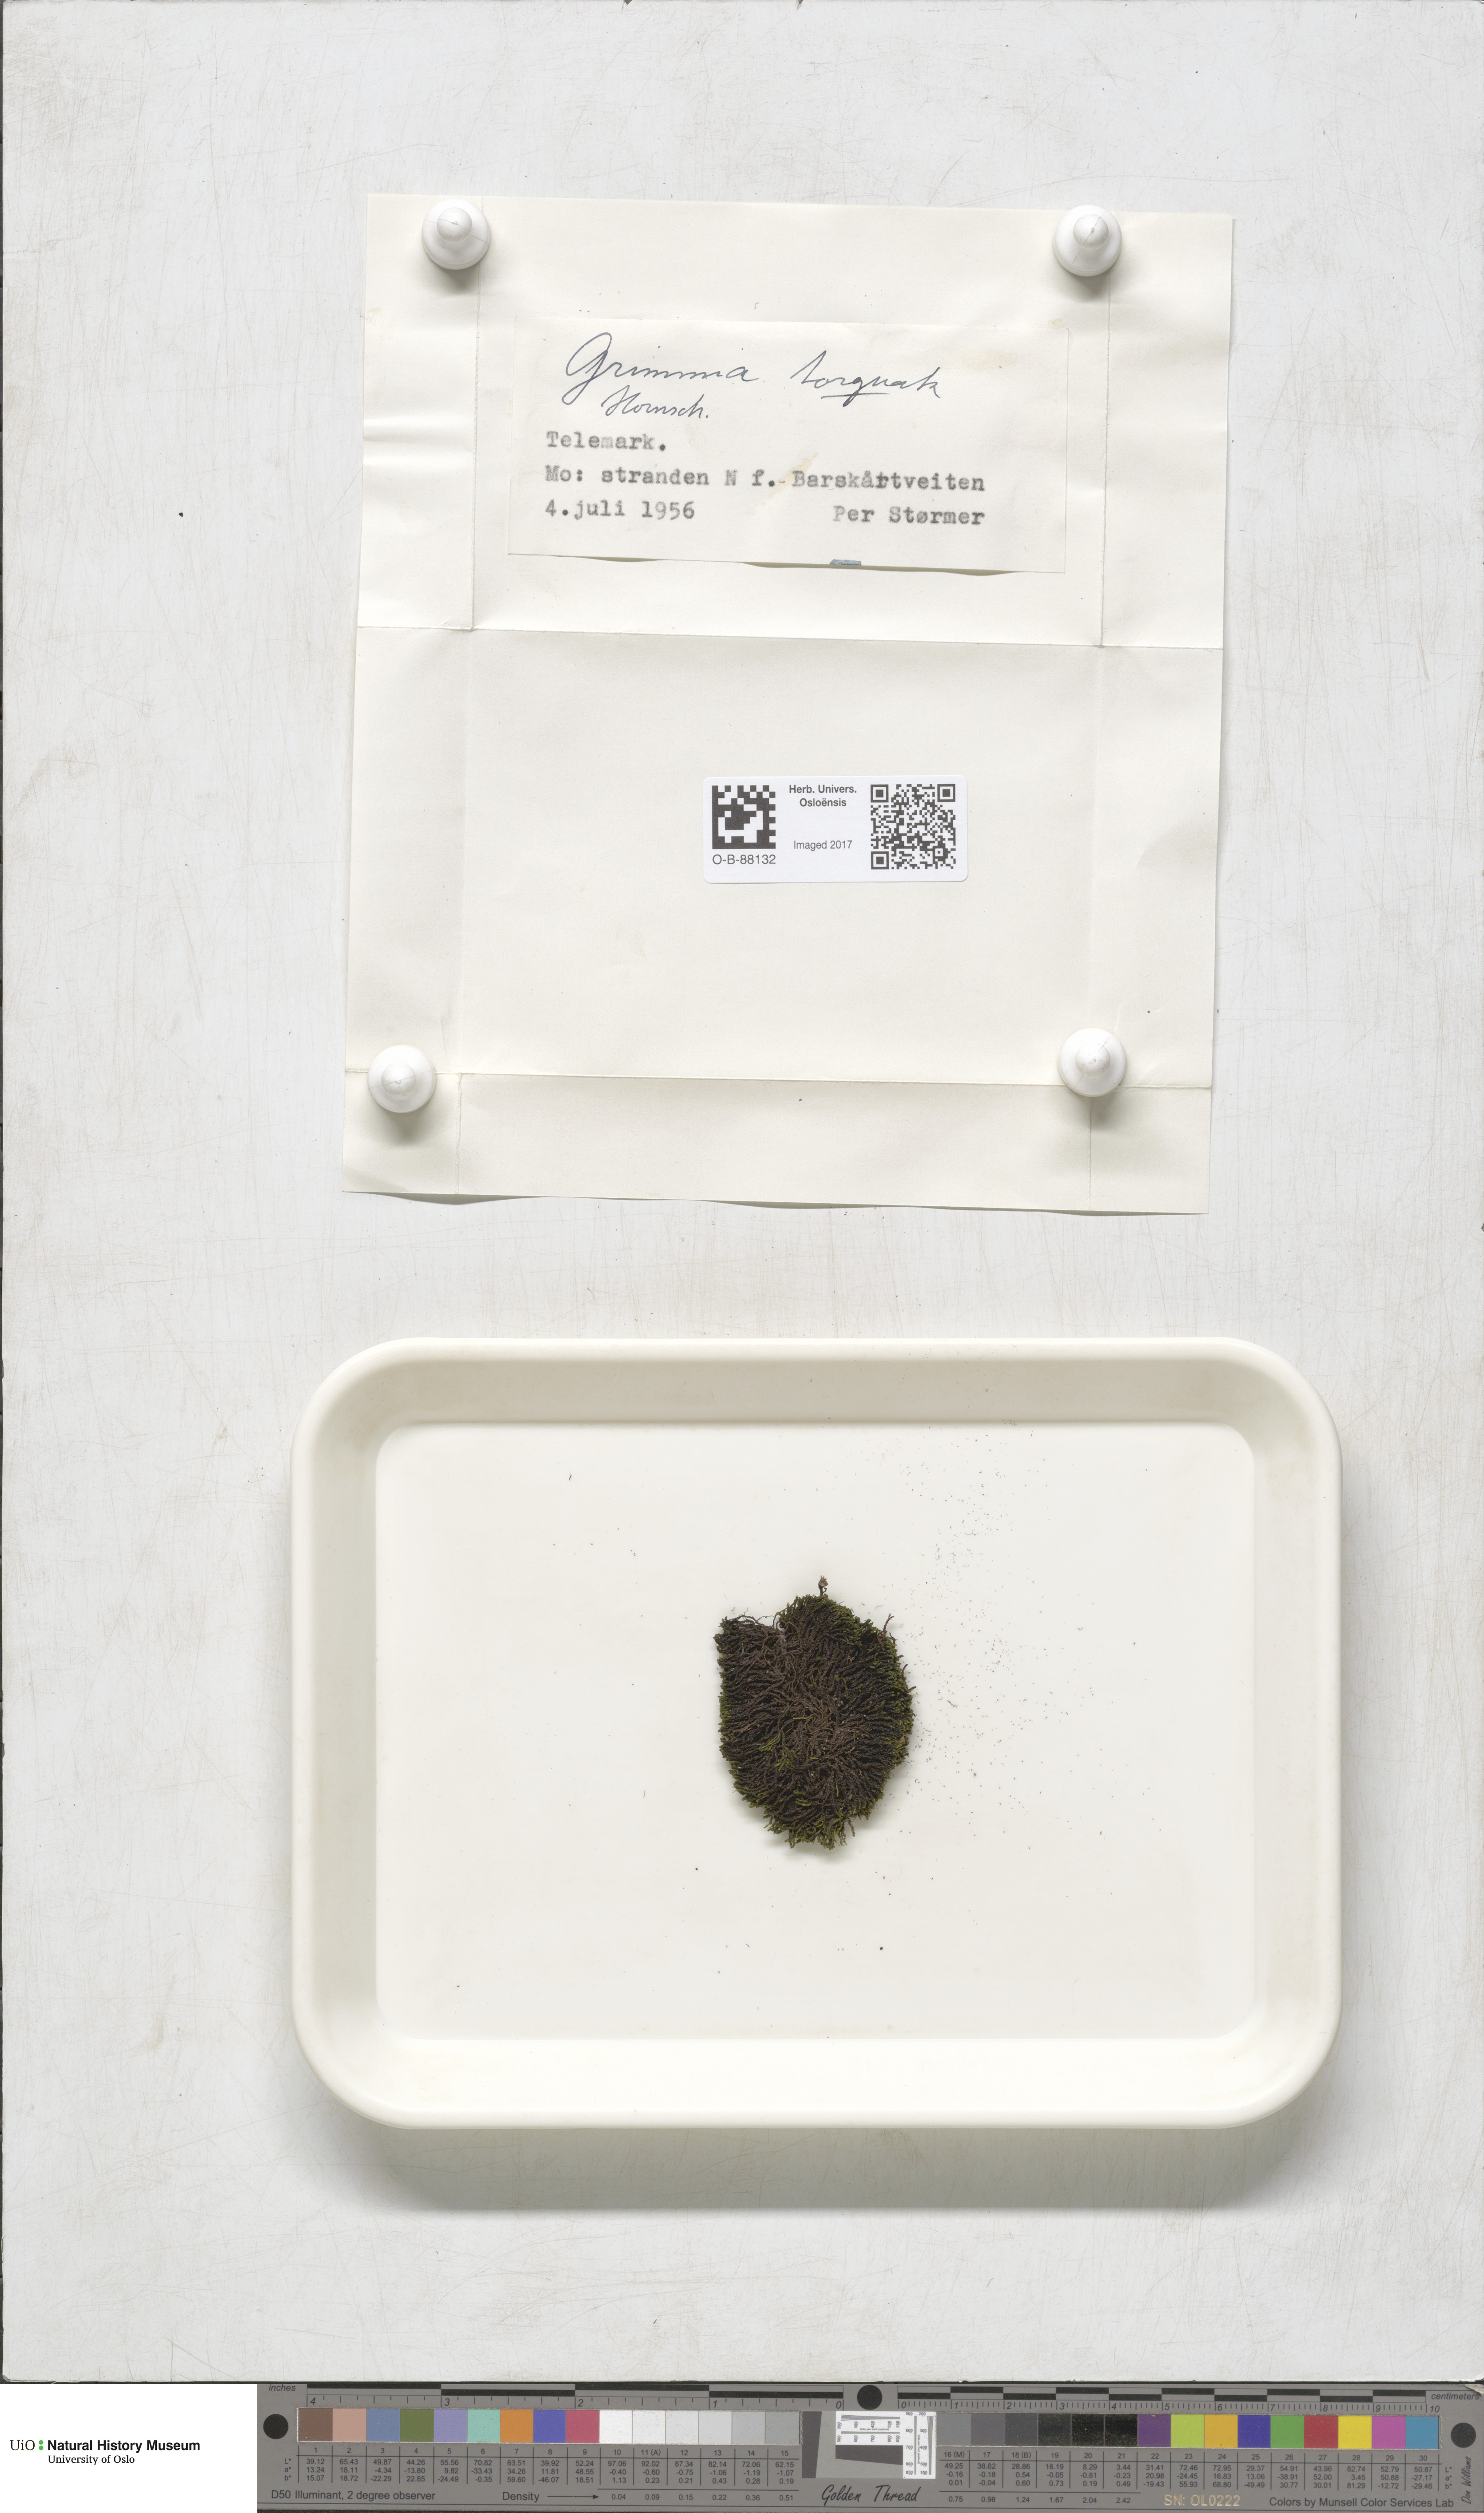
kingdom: Plantae
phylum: Bryophyta
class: Bryopsida
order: Grimmiales
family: Grimmiaceae
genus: Grimmia
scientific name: Grimmia torquata
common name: Twisted grimmia
